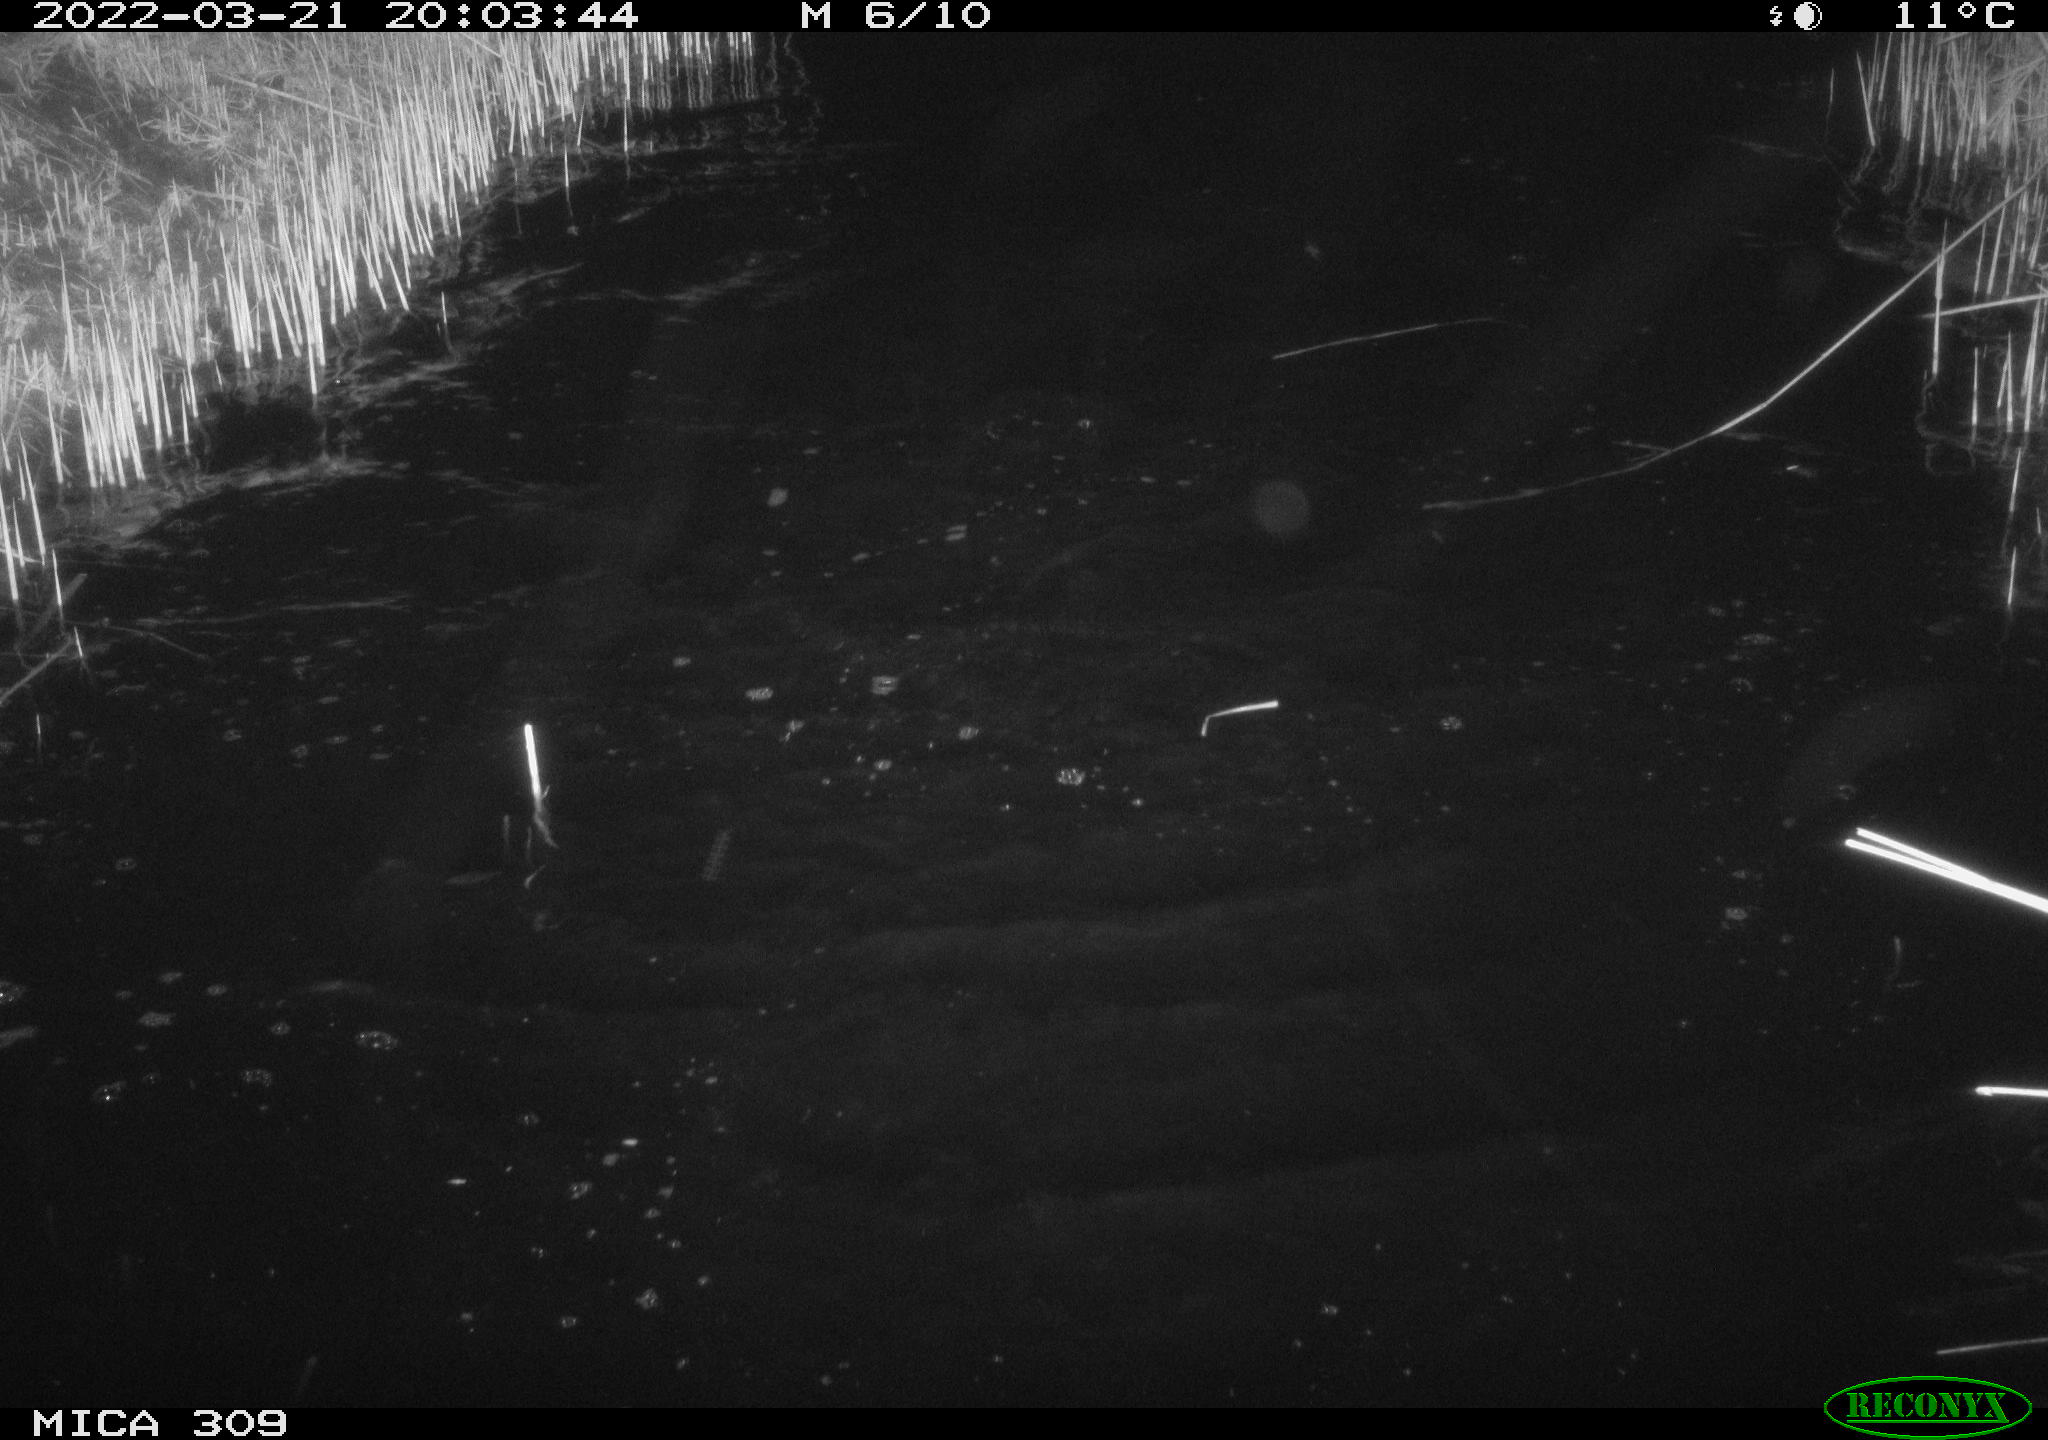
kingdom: Animalia
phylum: Chordata
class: Aves
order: Anseriformes
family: Anatidae
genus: Anas
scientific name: Anas platyrhynchos
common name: Mallard
